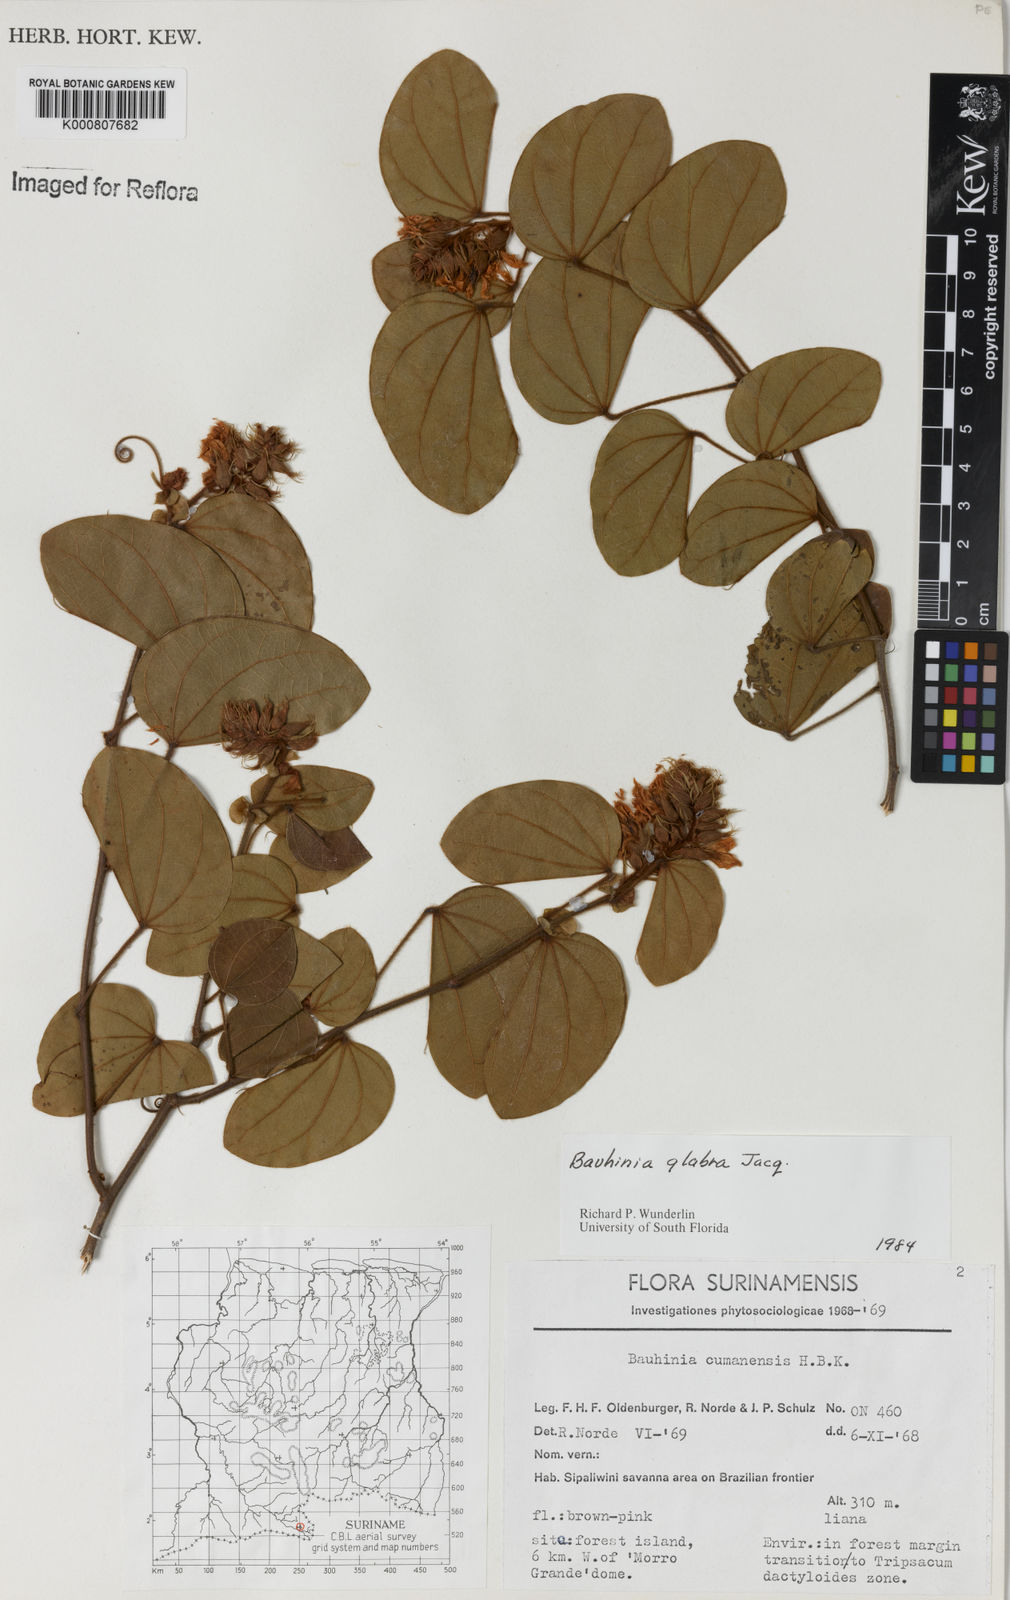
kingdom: Plantae
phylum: Tracheophyta
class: Magnoliopsida
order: Fabales
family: Fabaceae
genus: Schnella
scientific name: Schnella glabra
